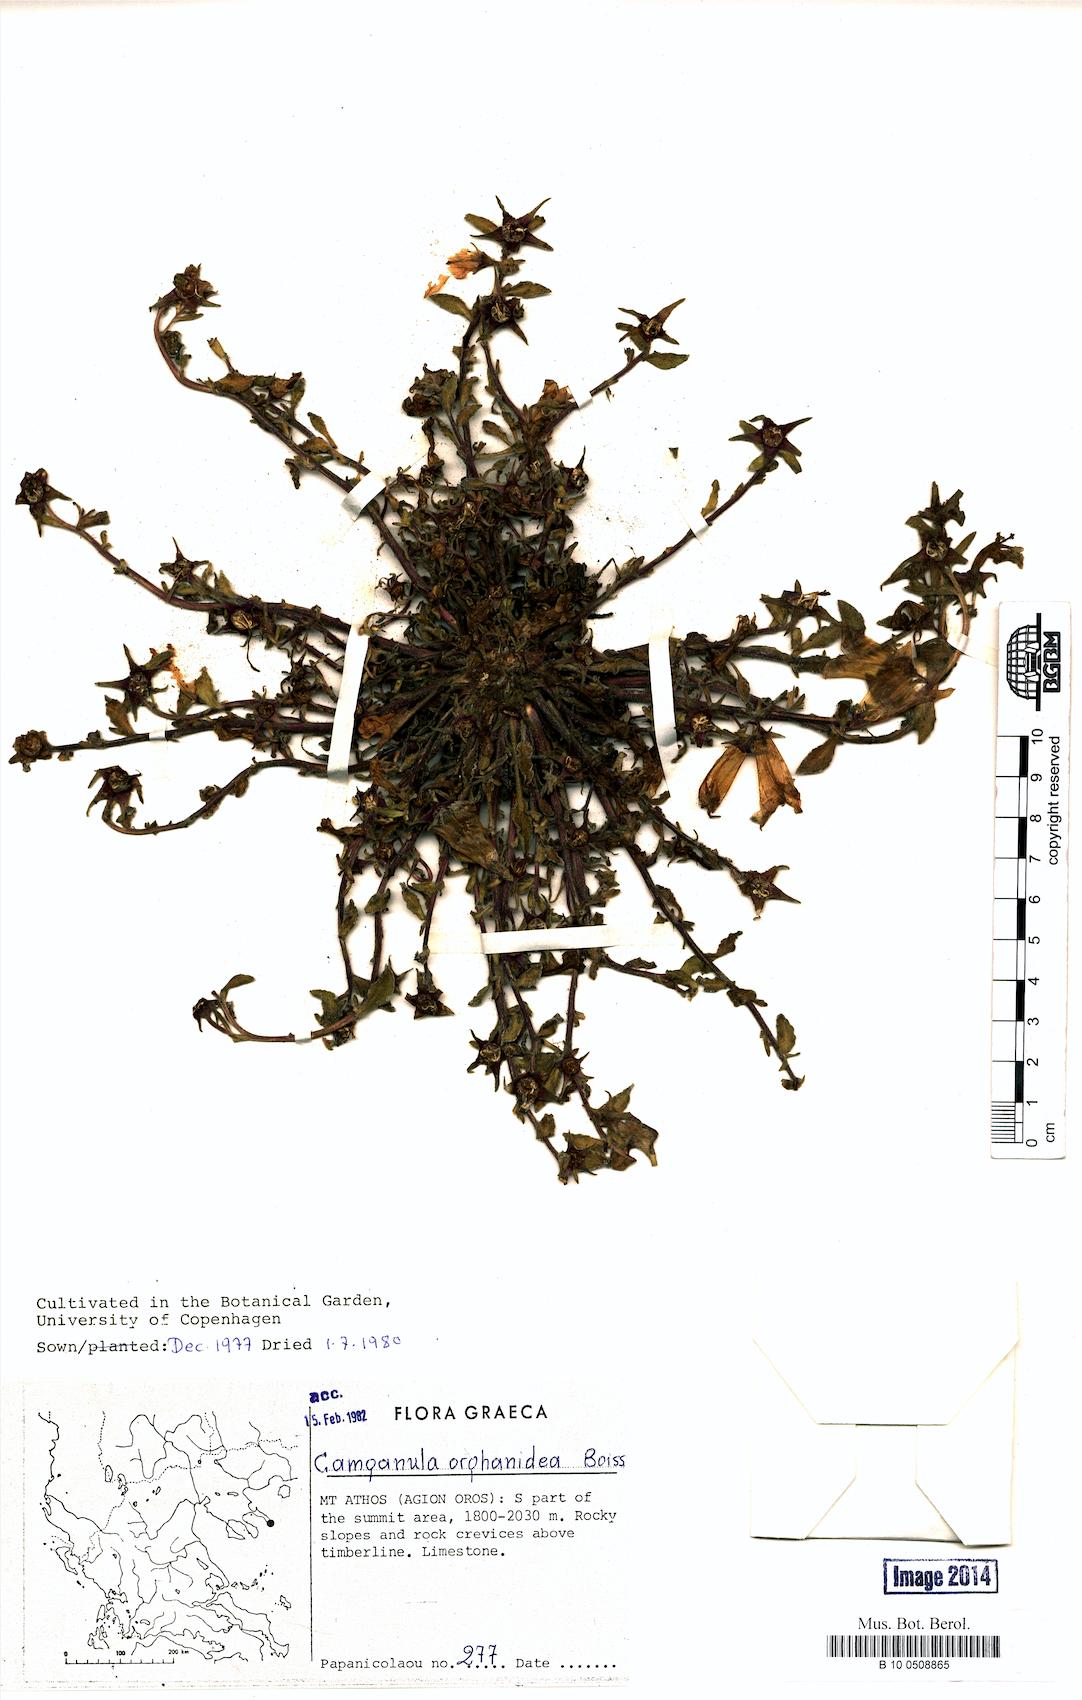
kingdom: Plantae
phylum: Tracheophyta
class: Magnoliopsida
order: Asterales
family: Campanulaceae
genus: Campanula
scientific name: Campanula orphanidea
